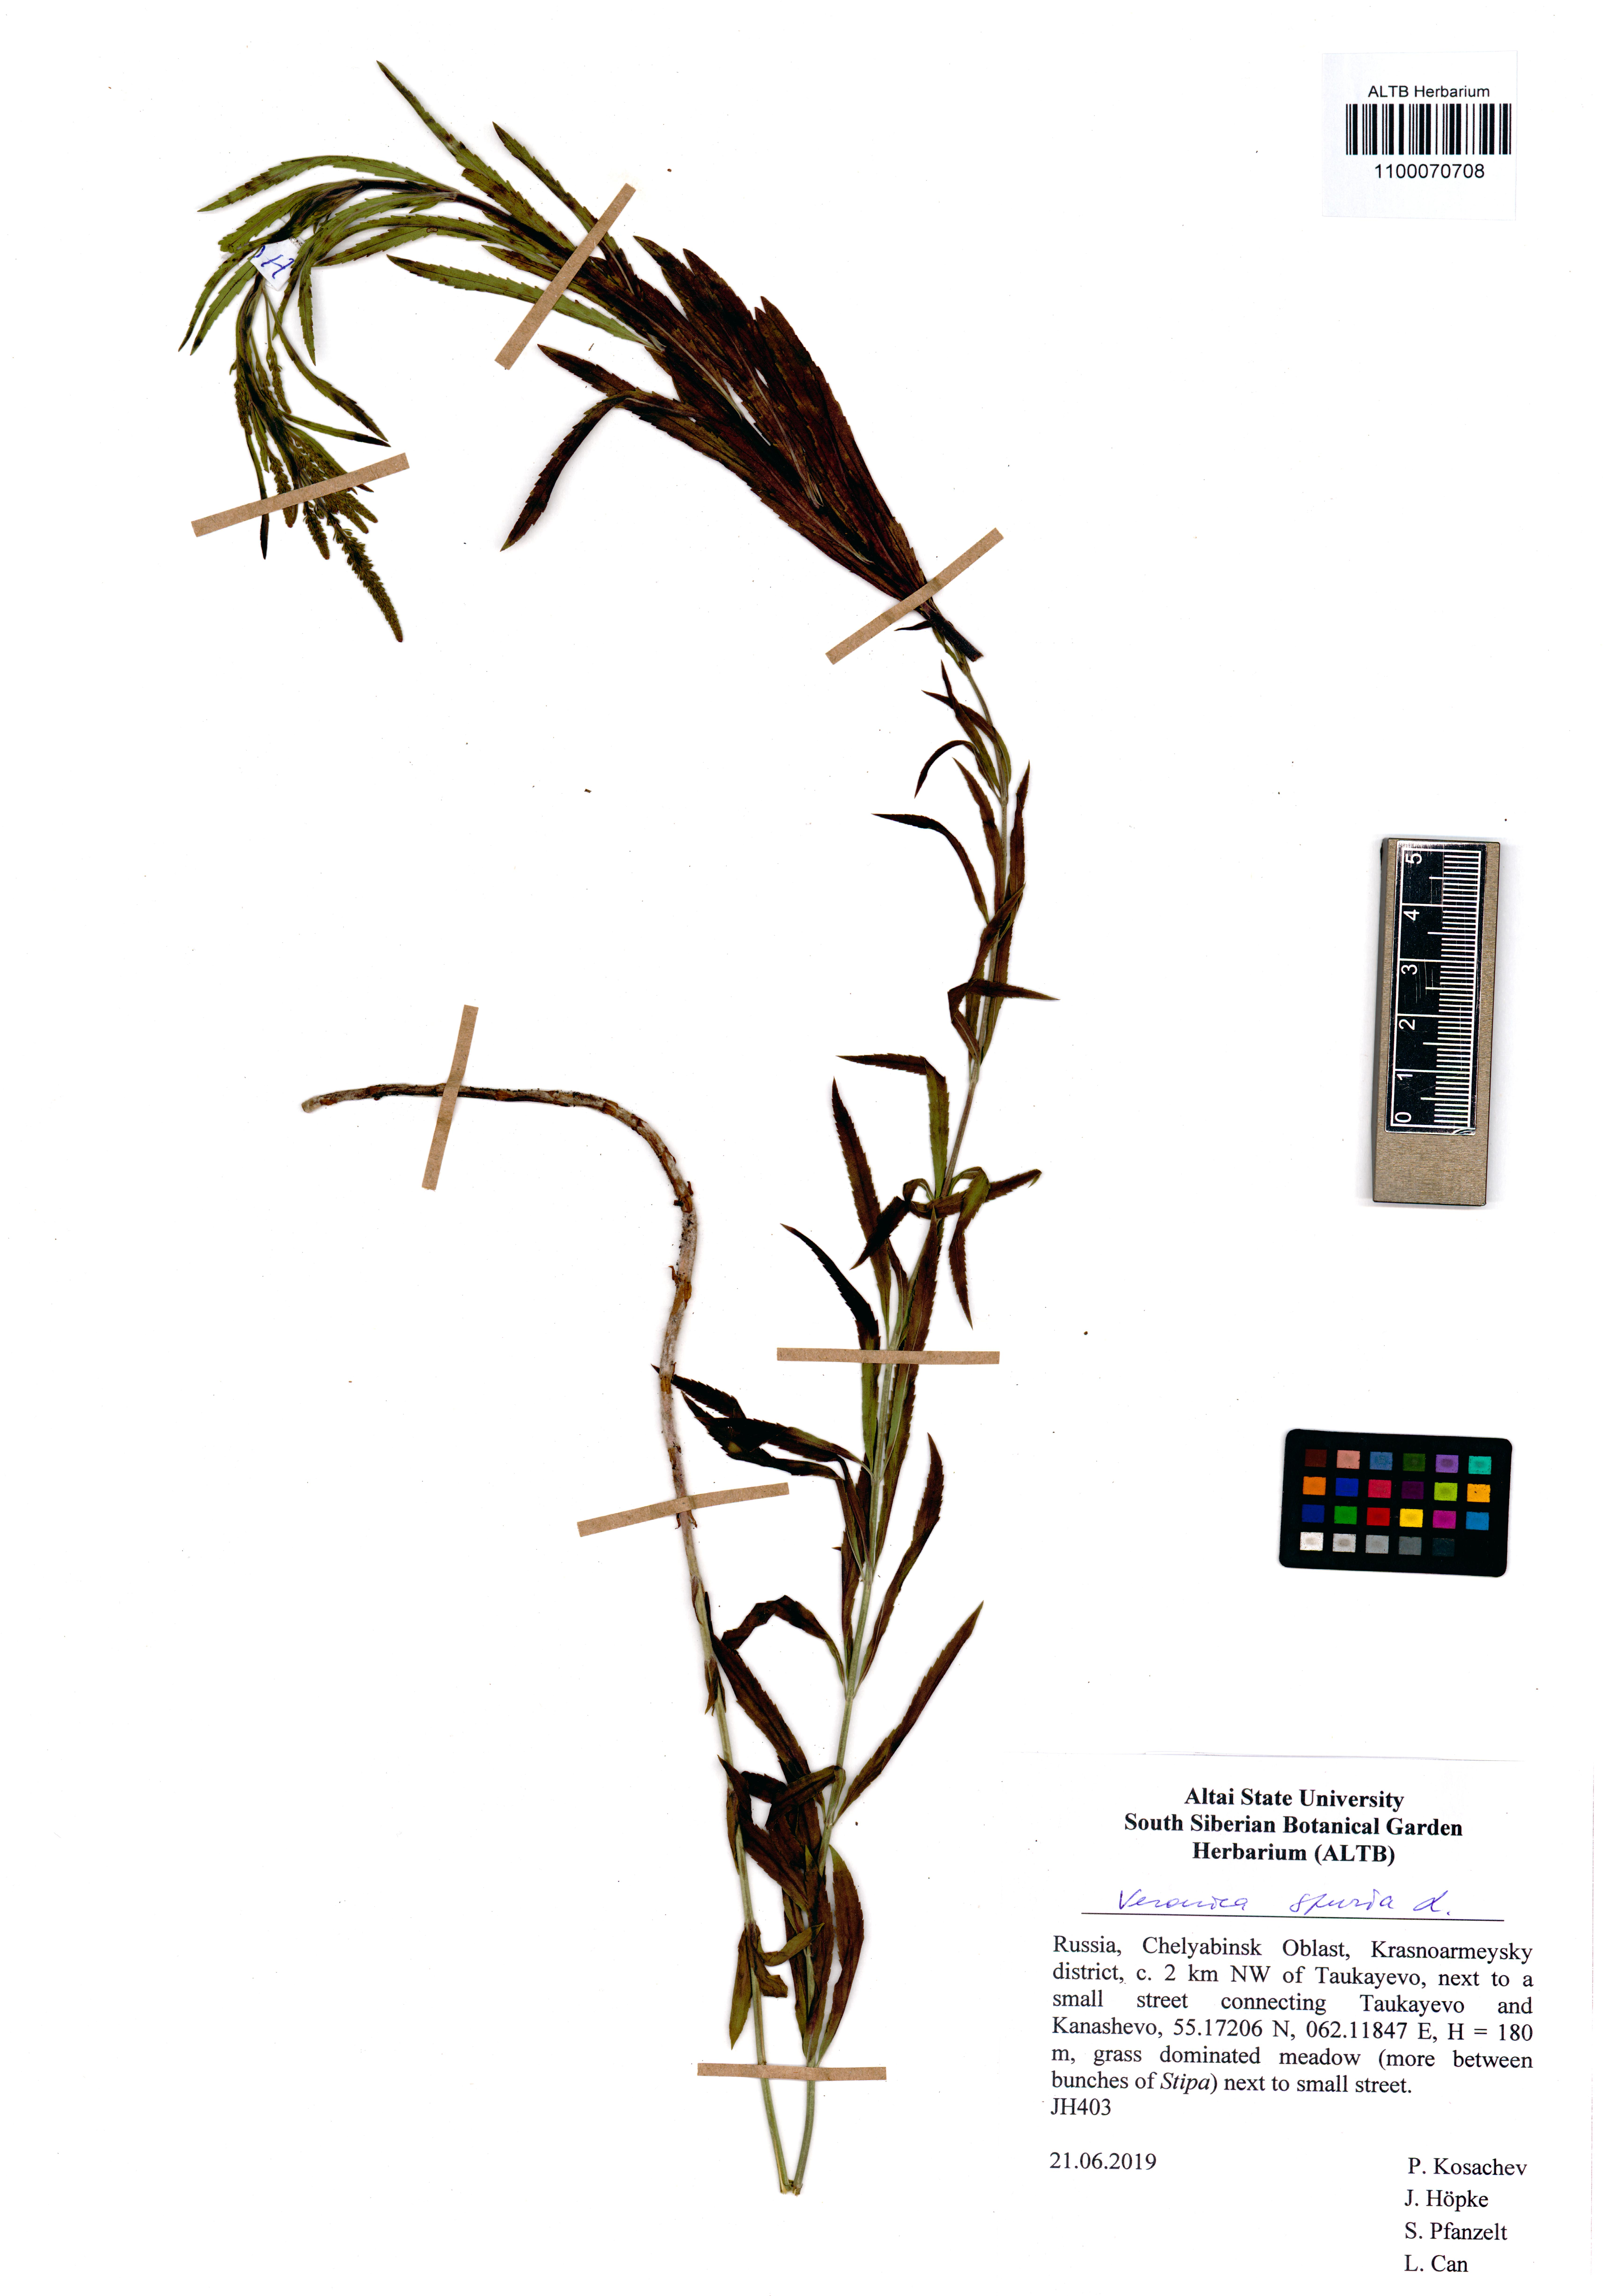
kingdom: Plantae
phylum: Tracheophyta
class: Magnoliopsida
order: Lamiales
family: Plantaginaceae
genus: Veronica
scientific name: Veronica spuria
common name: Bastard speedwell
